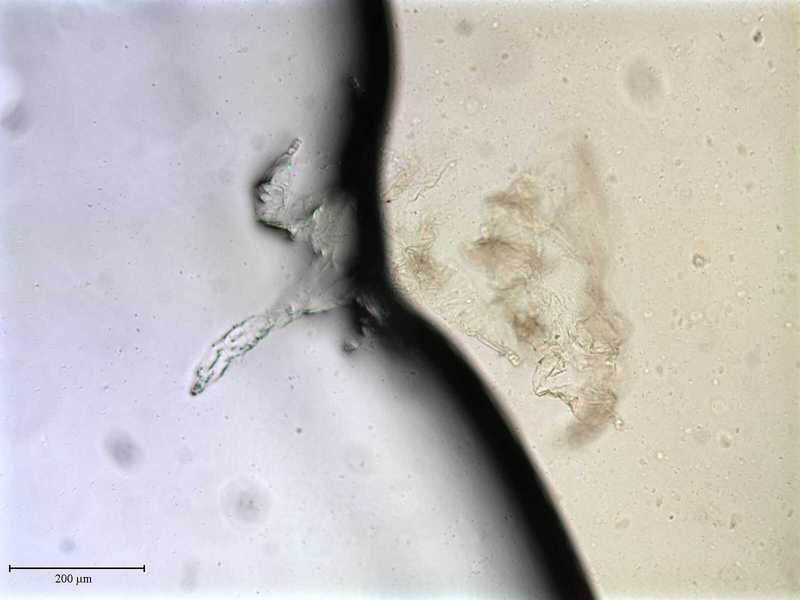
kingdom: Animalia
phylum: Arthropoda
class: Arachnida
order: Mesostigmata
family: Entonyssidae
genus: Entophionyssus
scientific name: Entophionyssus glasmacheri
